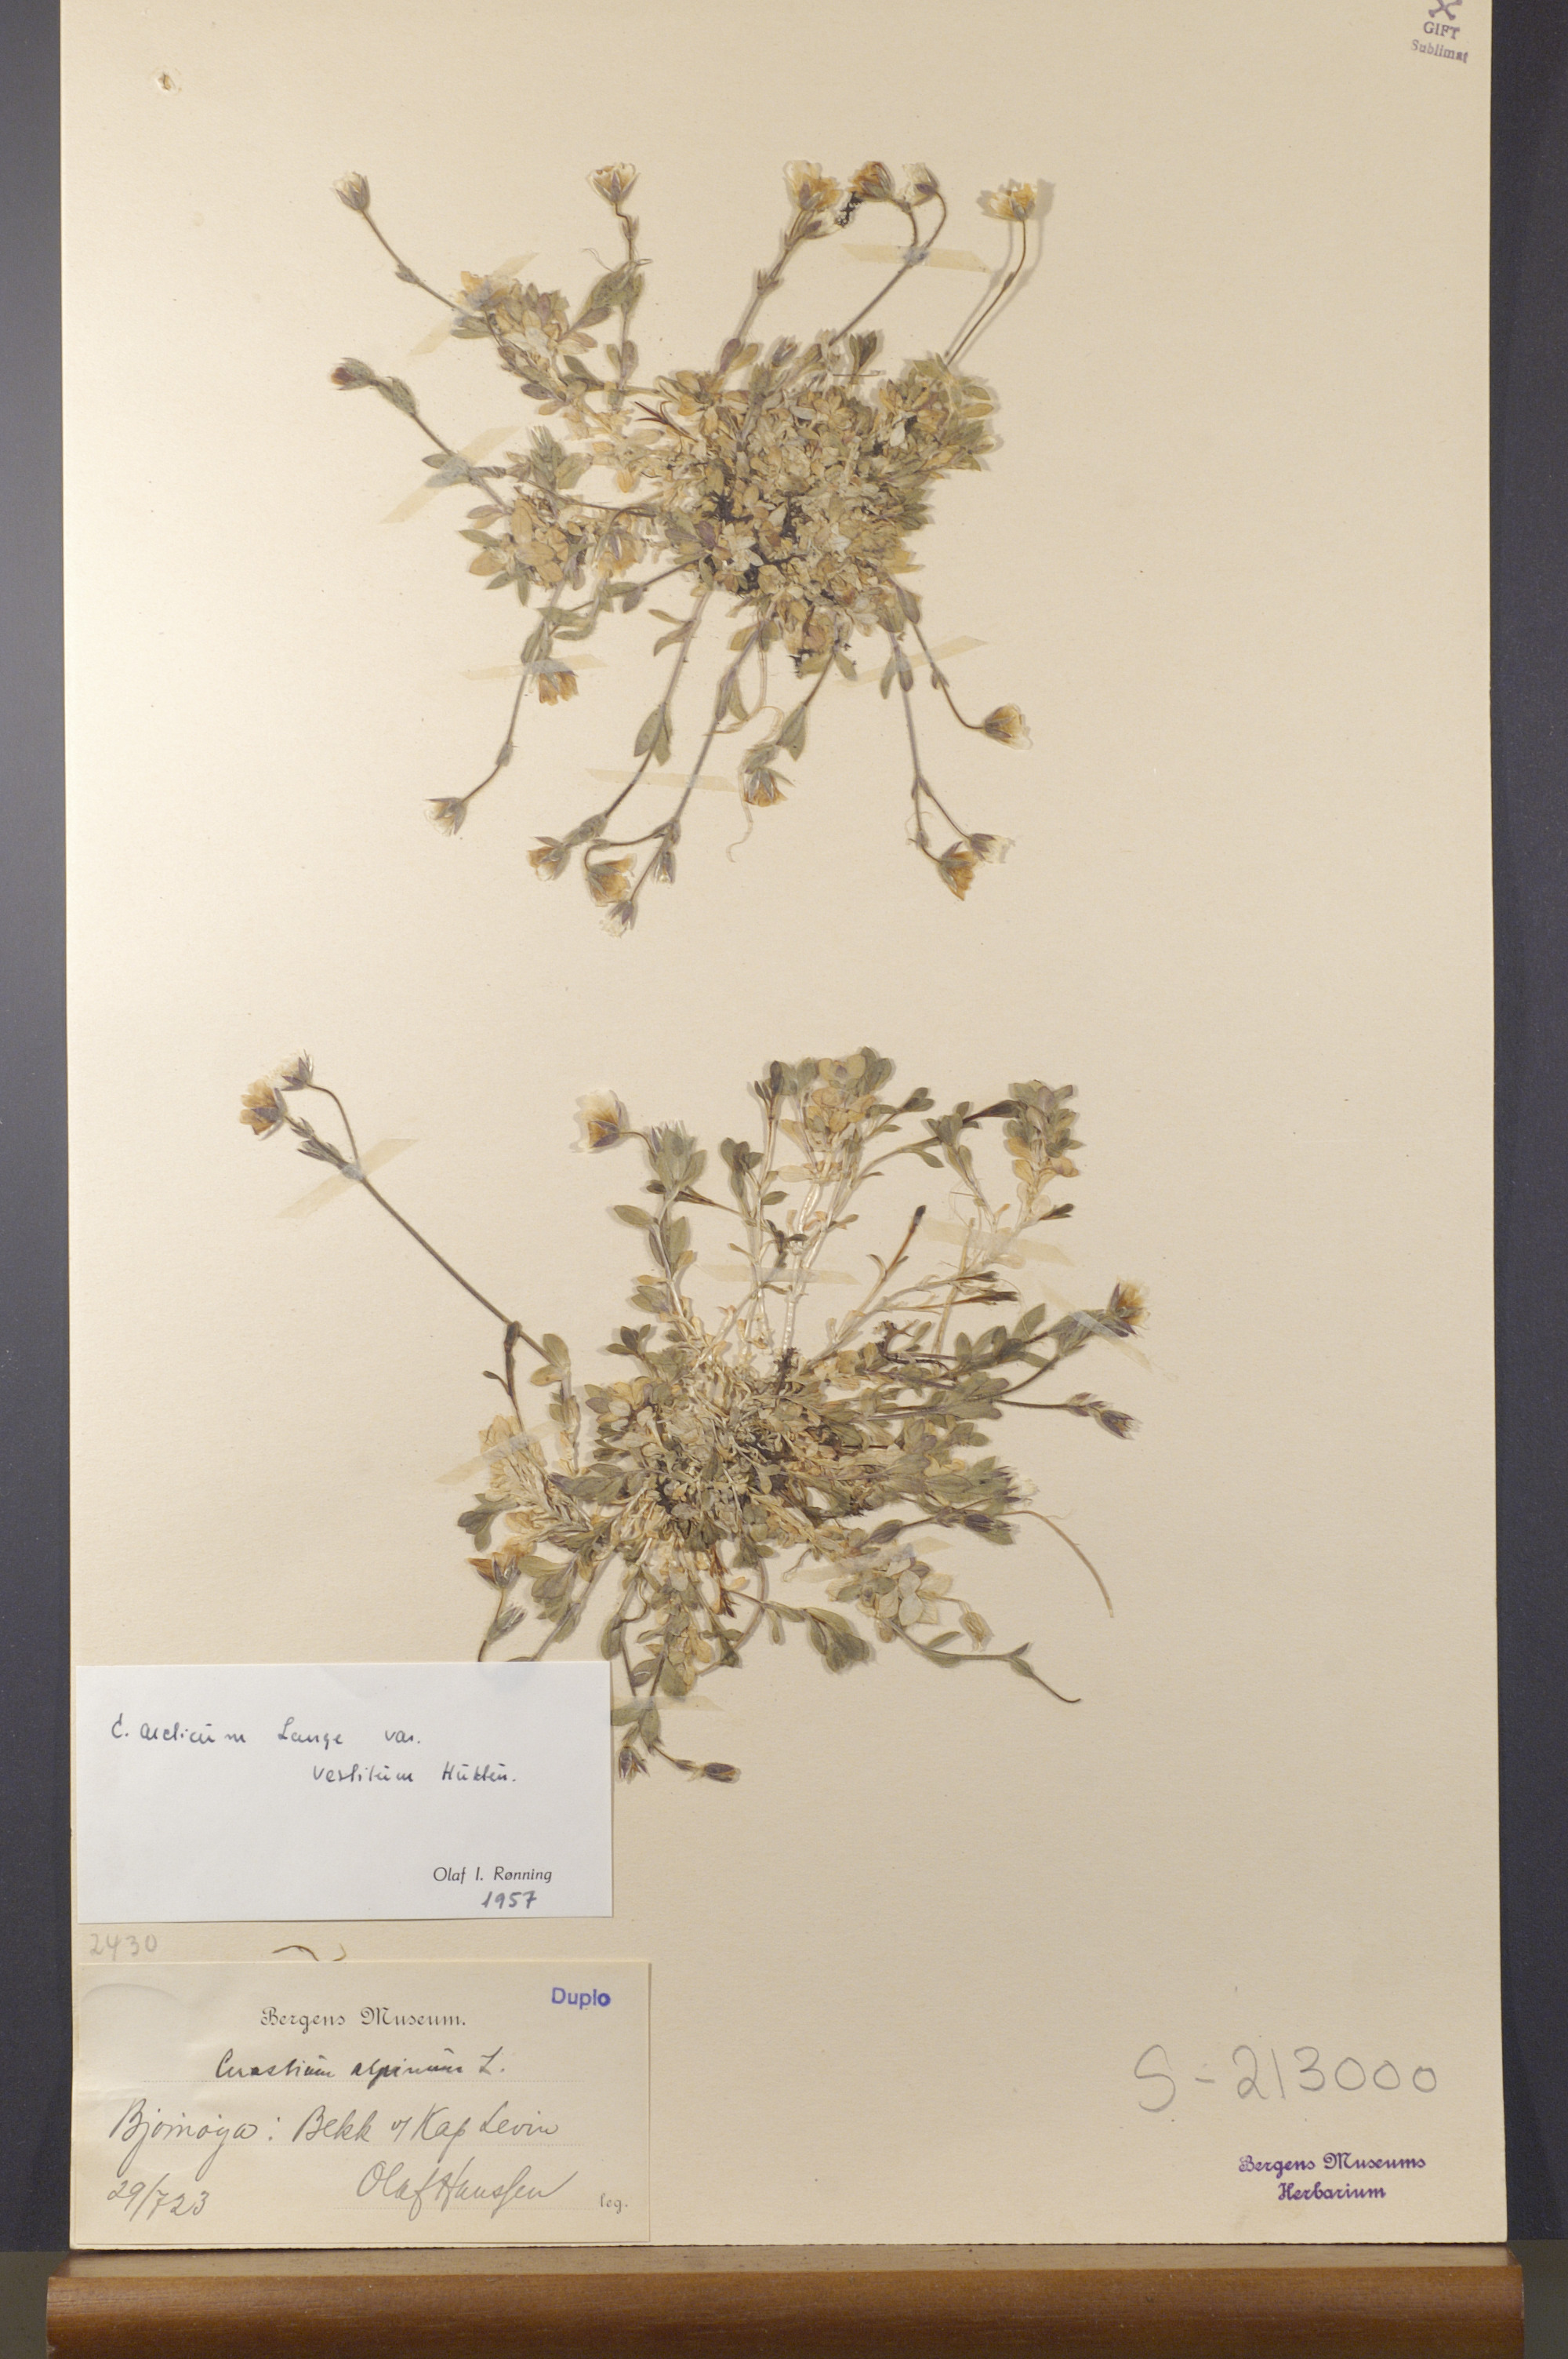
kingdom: Plantae
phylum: Tracheophyta
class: Magnoliopsida
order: Caryophyllales
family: Caryophyllaceae
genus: Cerastium
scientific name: Cerastium arcticum
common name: Arctic mouse-ear
